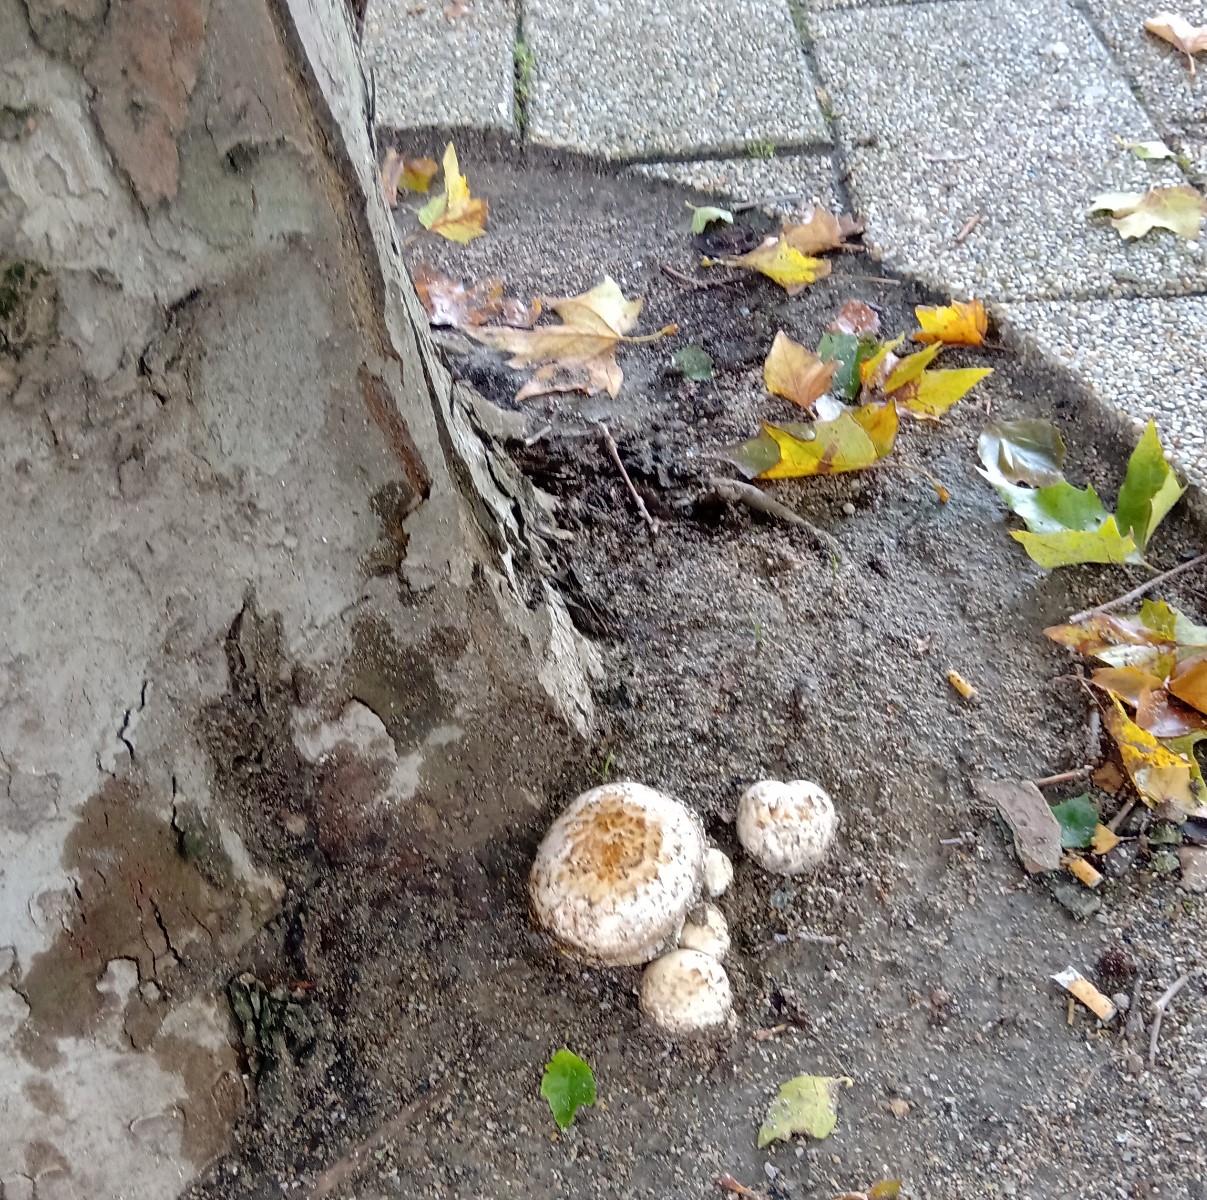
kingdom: Fungi
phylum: Basidiomycota
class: Agaricomycetes
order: Agaricales
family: Agaricaceae
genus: Agaricus
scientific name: Agaricus bitorquis
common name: vej-champignon
